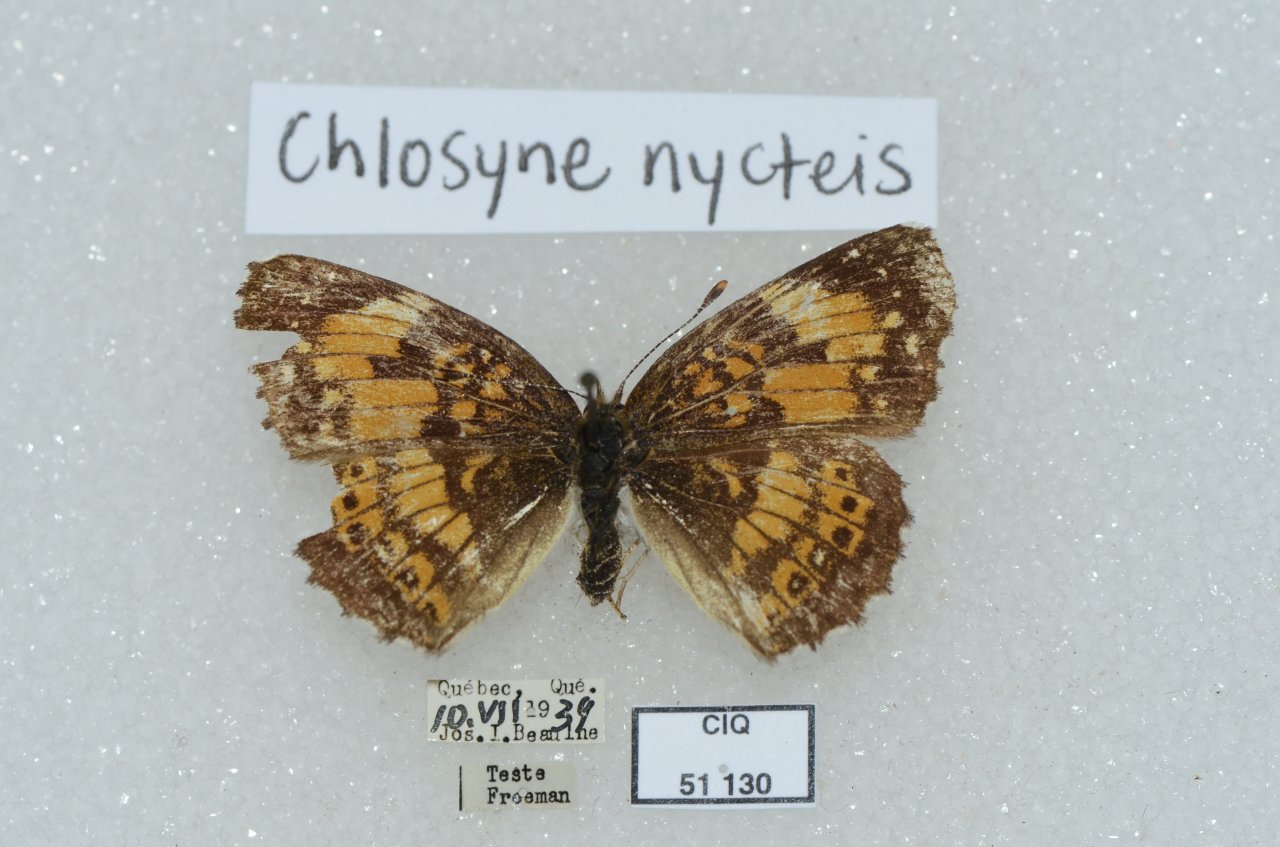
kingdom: Animalia
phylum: Arthropoda
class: Insecta
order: Lepidoptera
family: Nymphalidae
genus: Chlosyne
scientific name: Chlosyne nycteis
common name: Silvery Checkerspot
